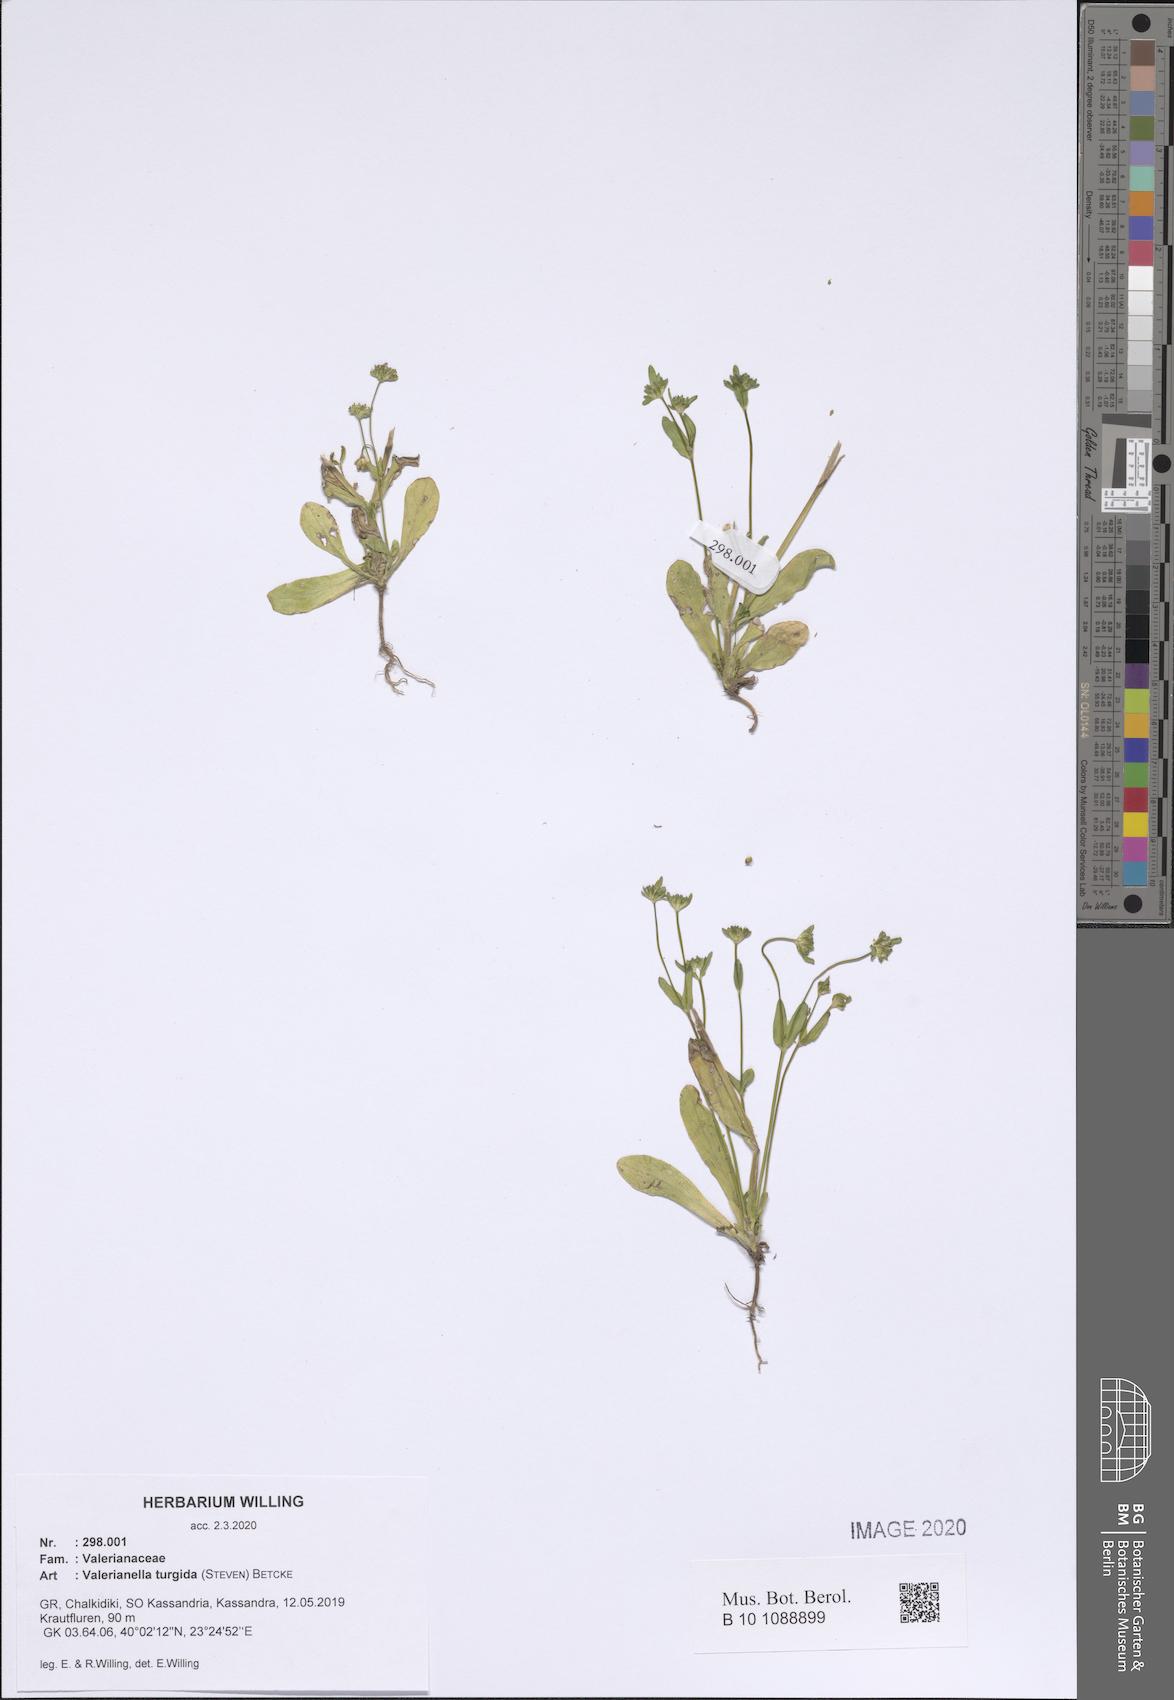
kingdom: Plantae
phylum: Tracheophyta
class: Magnoliopsida
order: Dipsacales
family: Caprifoliaceae
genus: Valerianella
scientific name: Valerianella turgida
